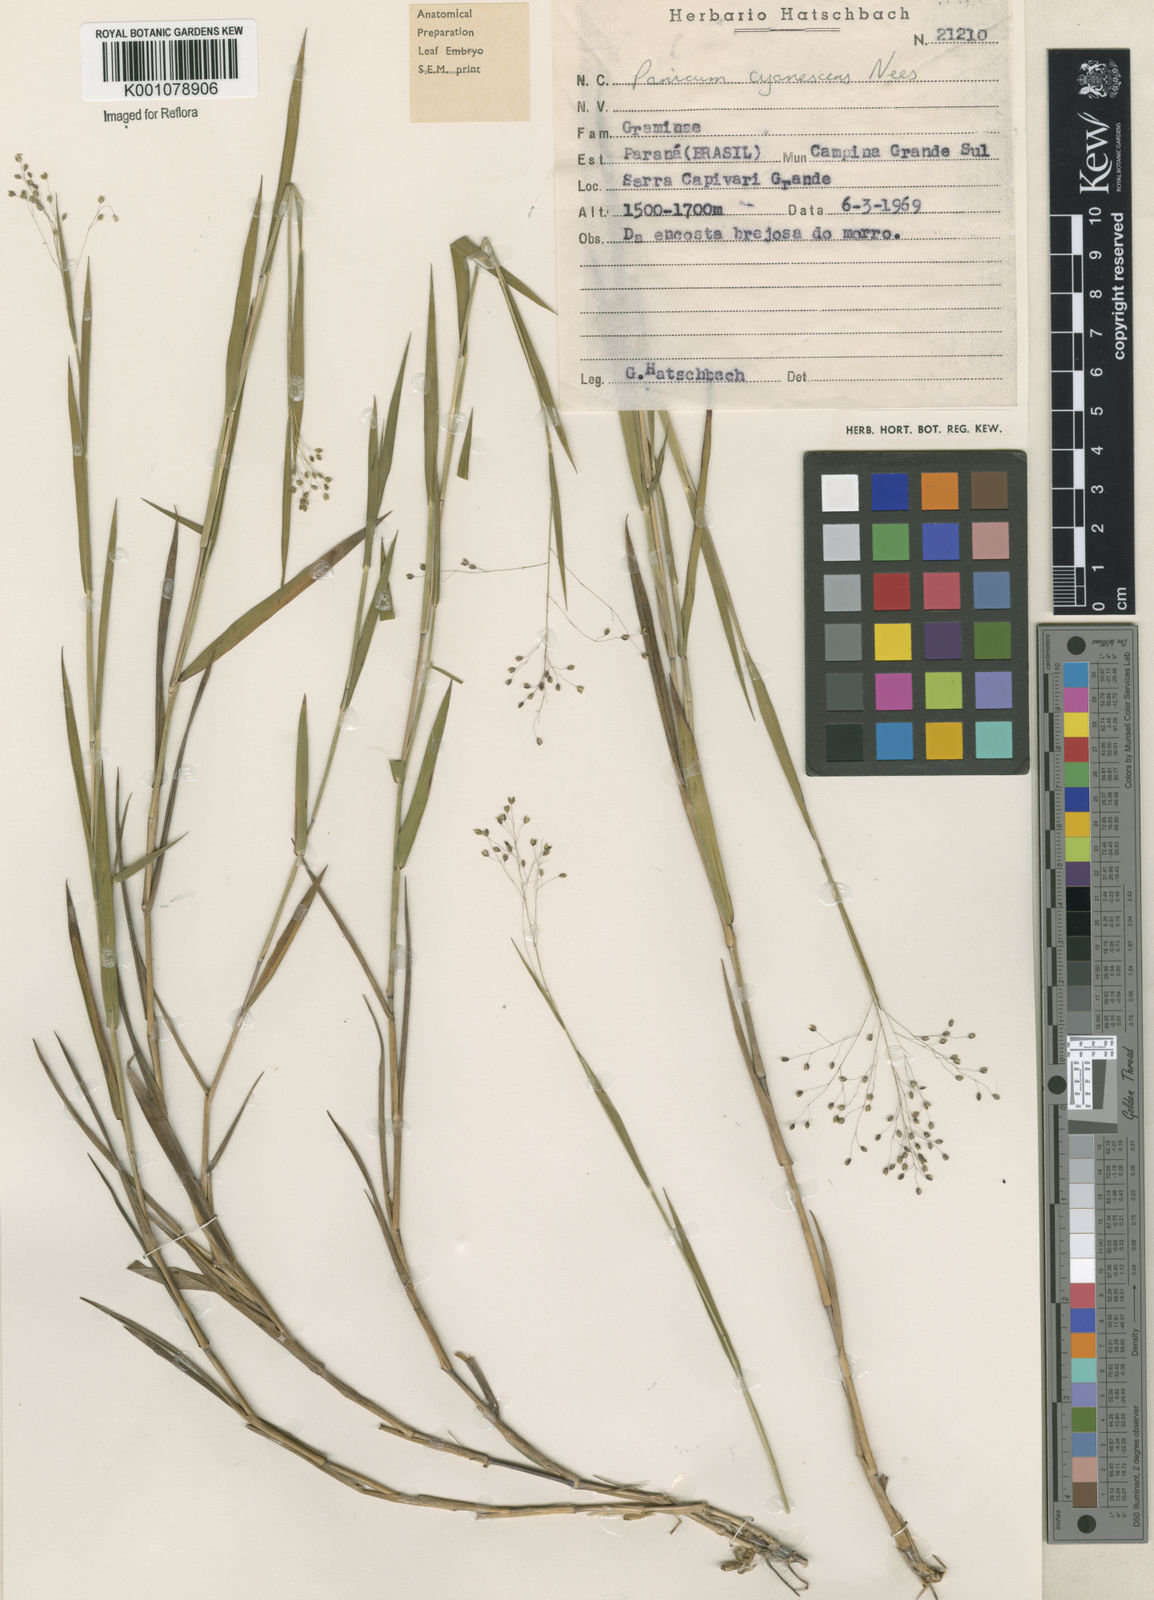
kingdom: Plantae
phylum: Tracheophyta
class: Liliopsida
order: Poales
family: Poaceae
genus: Trichanthecium
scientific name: Trichanthecium cyanescens
